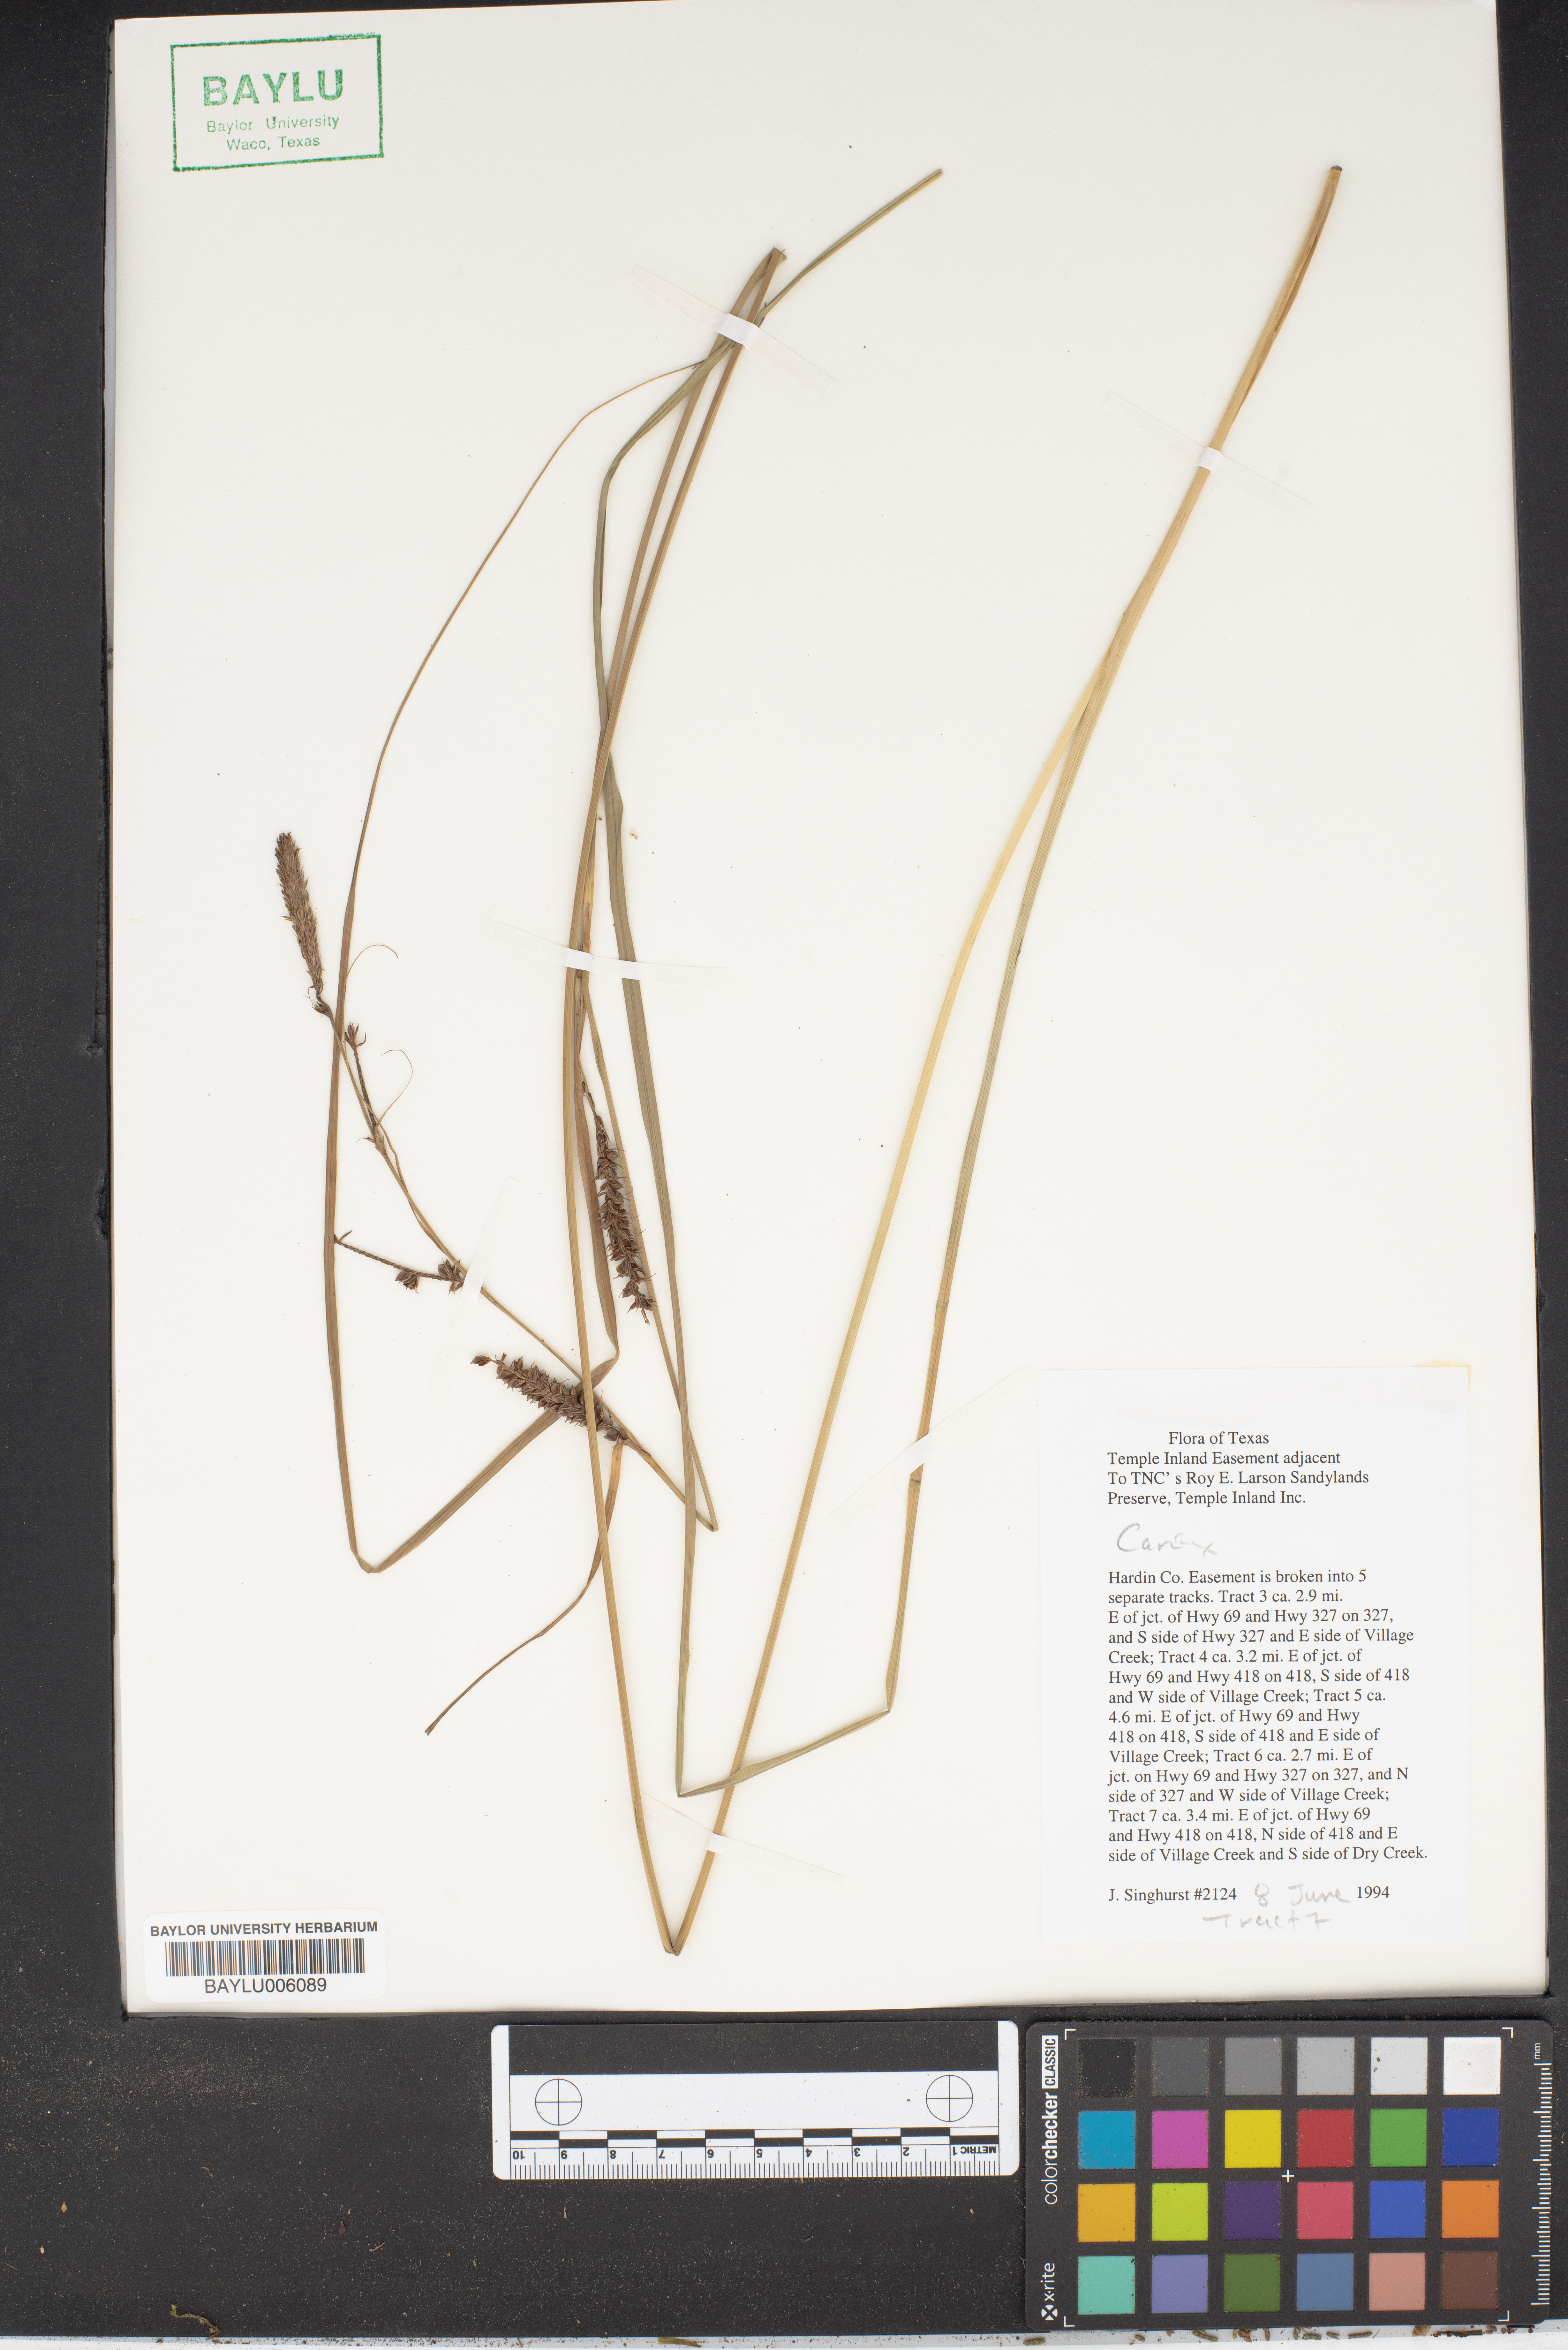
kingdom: Plantae
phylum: Tracheophyta
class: Liliopsida
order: Poales
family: Cyperaceae
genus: Carex
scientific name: Carex
